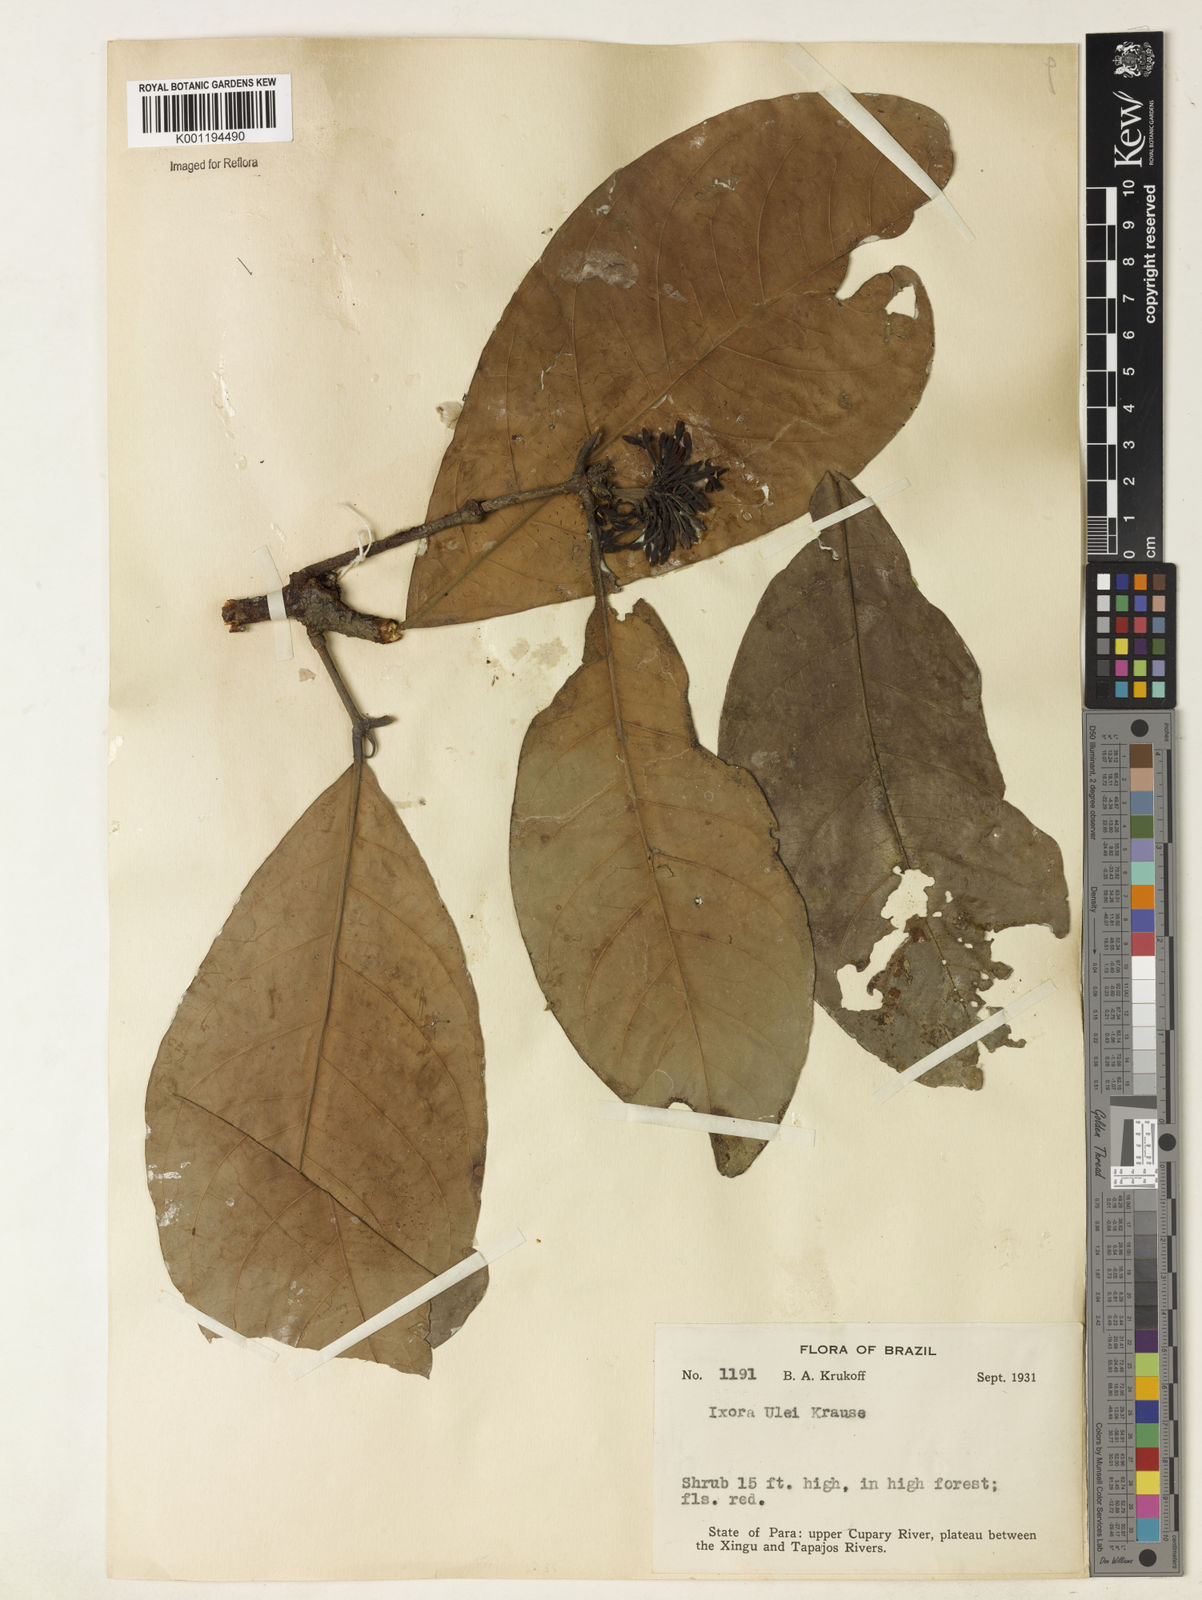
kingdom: Plantae
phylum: Tracheophyta
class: Magnoliopsida
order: Gentianales
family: Rubiaceae
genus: Ixora
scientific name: Ixora sparsifolia
